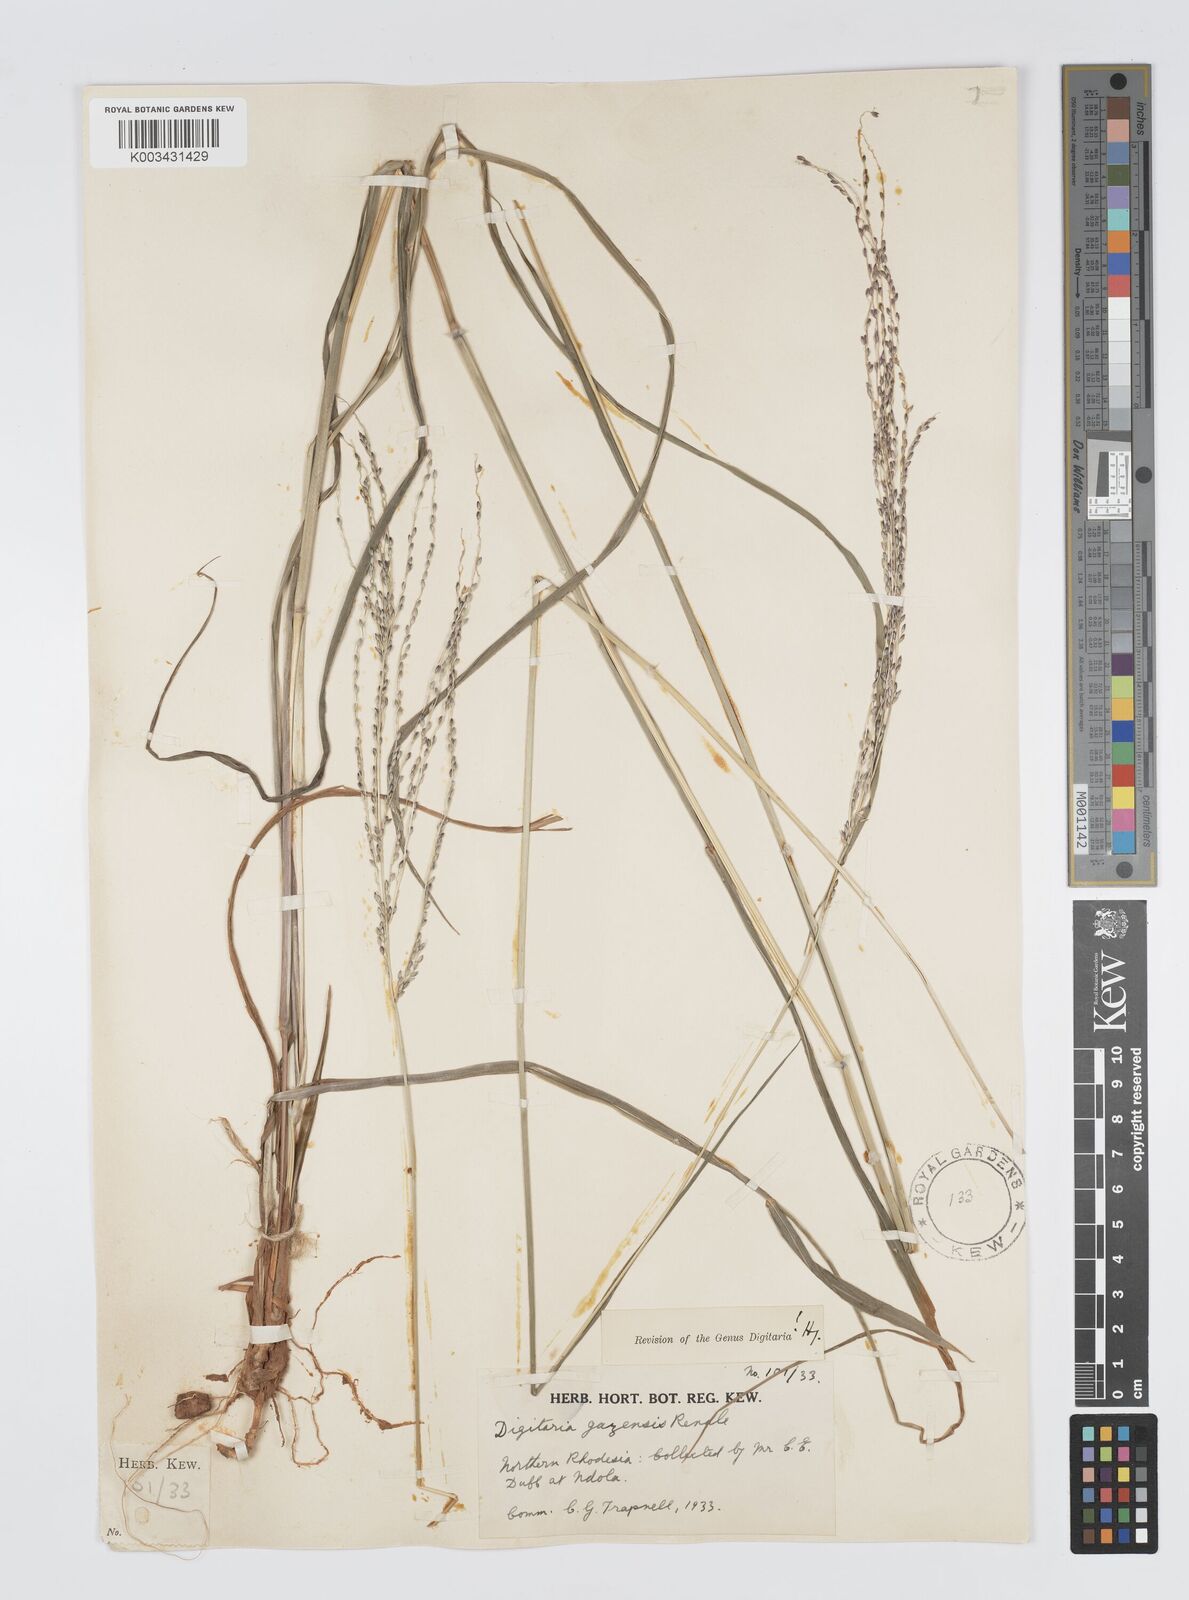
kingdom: Plantae
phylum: Tracheophyta
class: Liliopsida
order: Poales
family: Poaceae
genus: Digitaria
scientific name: Digitaria gazensis
